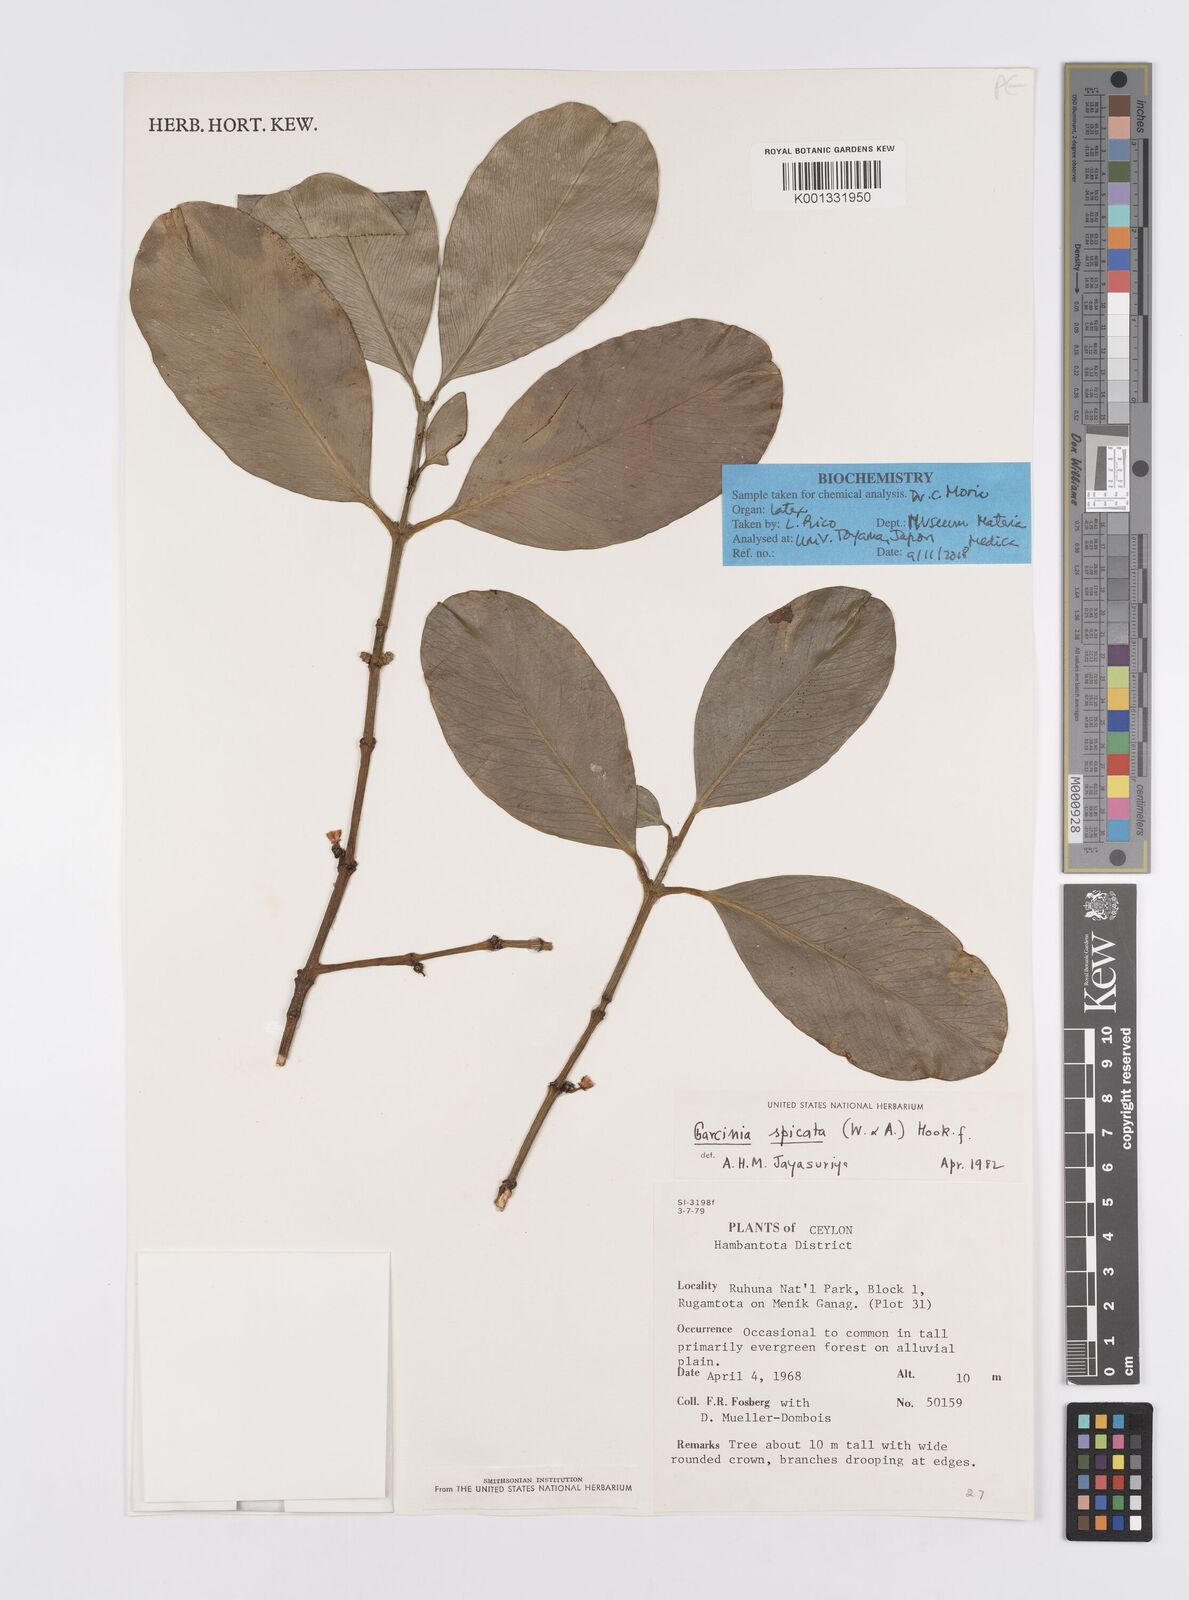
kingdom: Plantae
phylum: Tracheophyta
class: Magnoliopsida
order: Malpighiales
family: Clusiaceae
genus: Garcinia
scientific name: Garcinia spicata
